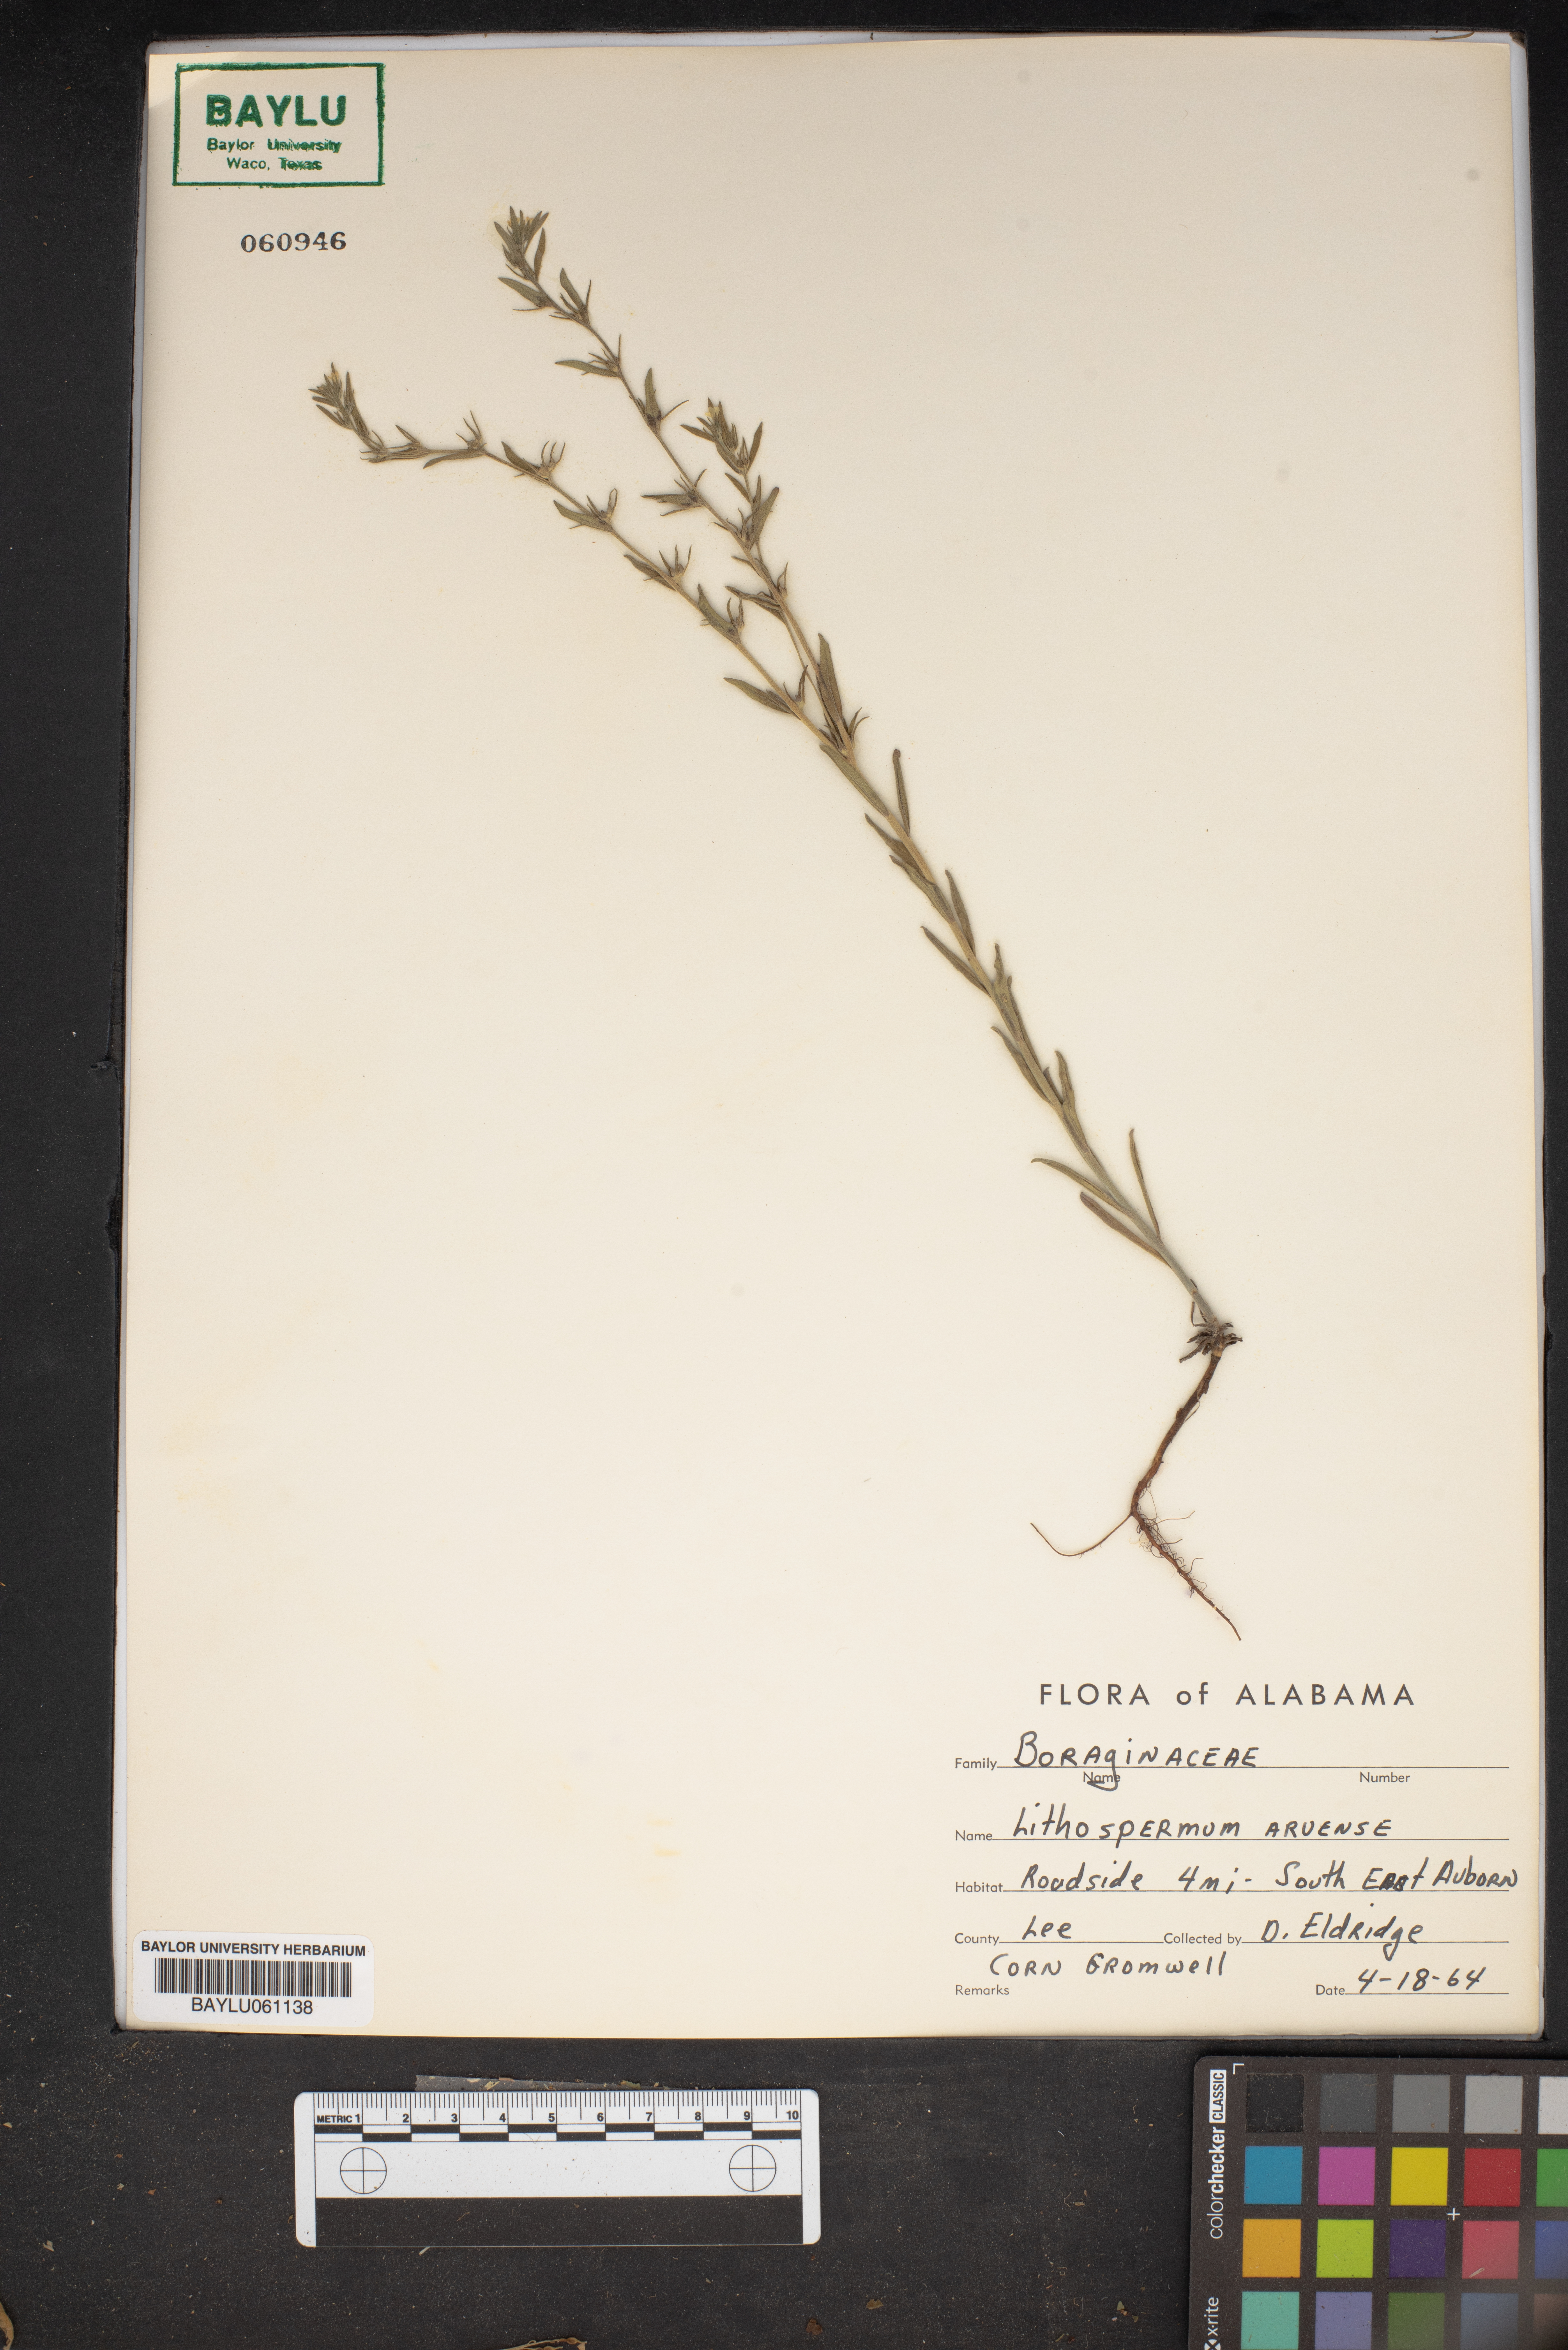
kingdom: Plantae
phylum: Tracheophyta
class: Magnoliopsida
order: Boraginales
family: Boraginaceae
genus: Lithospermum
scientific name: Lithospermum erythrorhizon
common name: Purple gromwell
